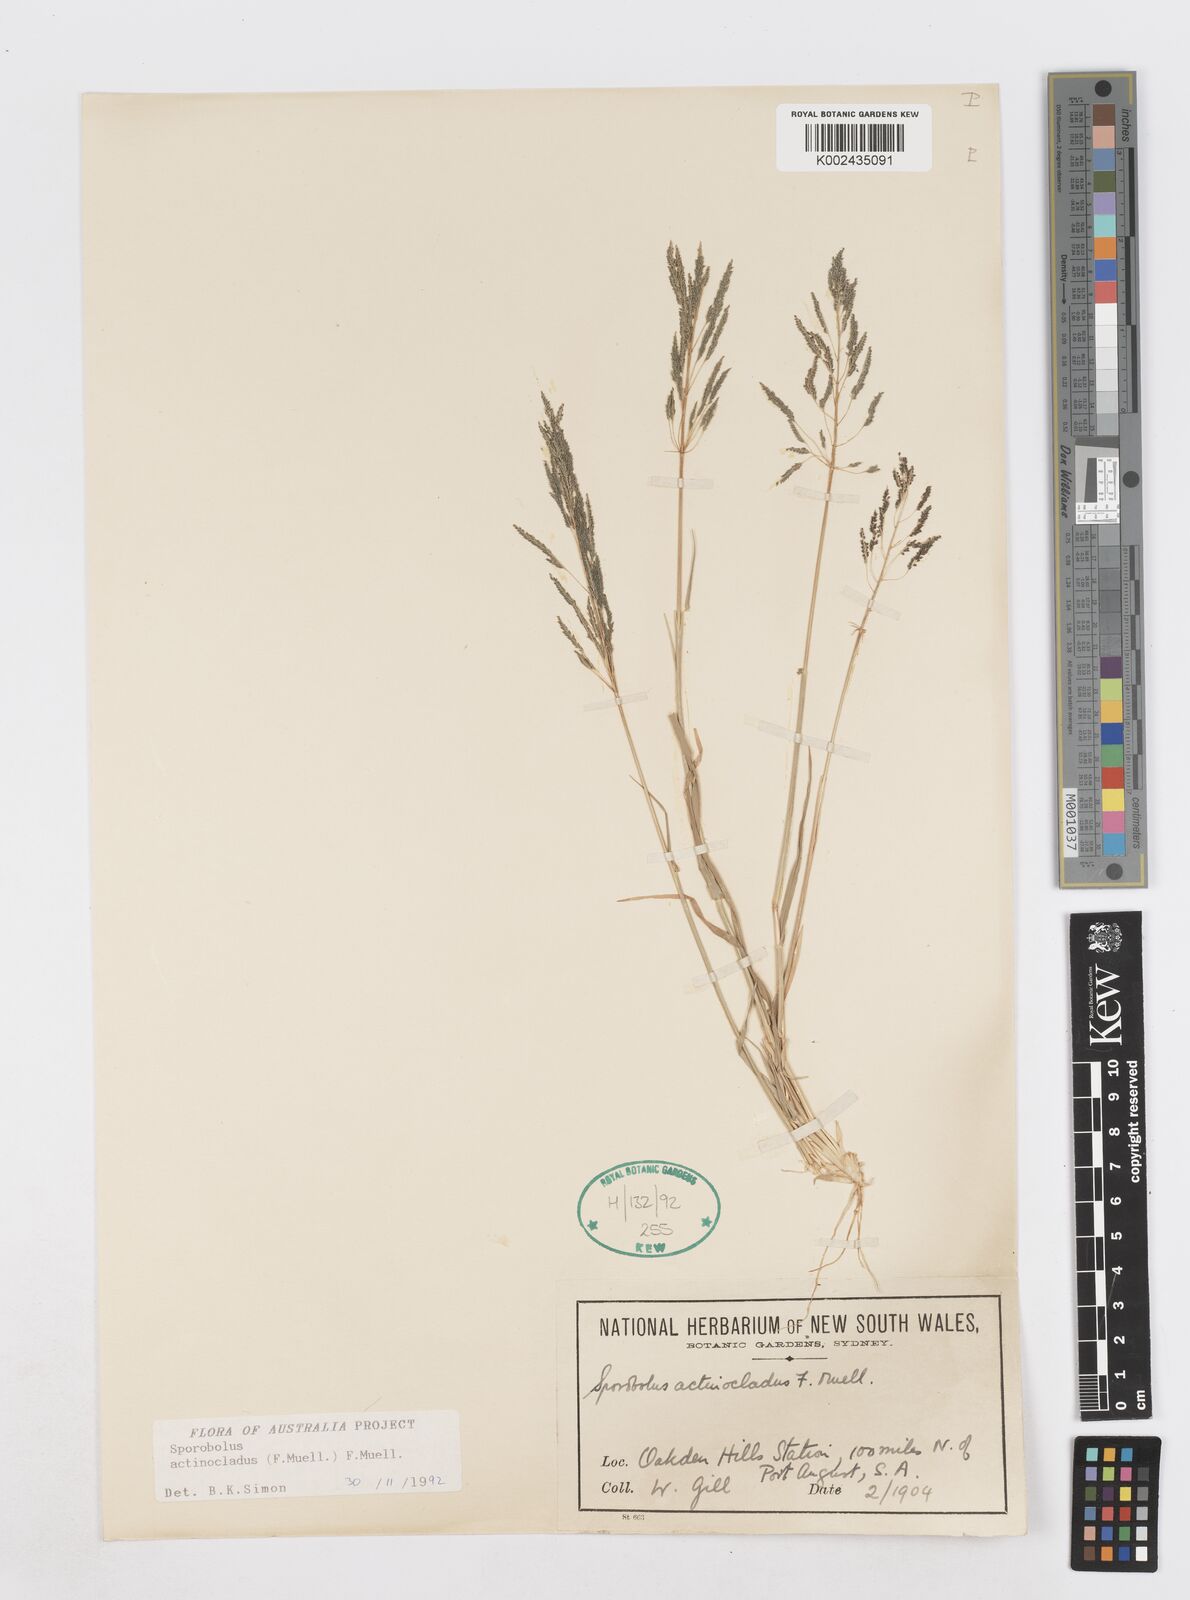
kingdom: Plantae
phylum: Tracheophyta
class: Liliopsida
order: Poales
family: Poaceae
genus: Sporobolus
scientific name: Sporobolus actinocladus
